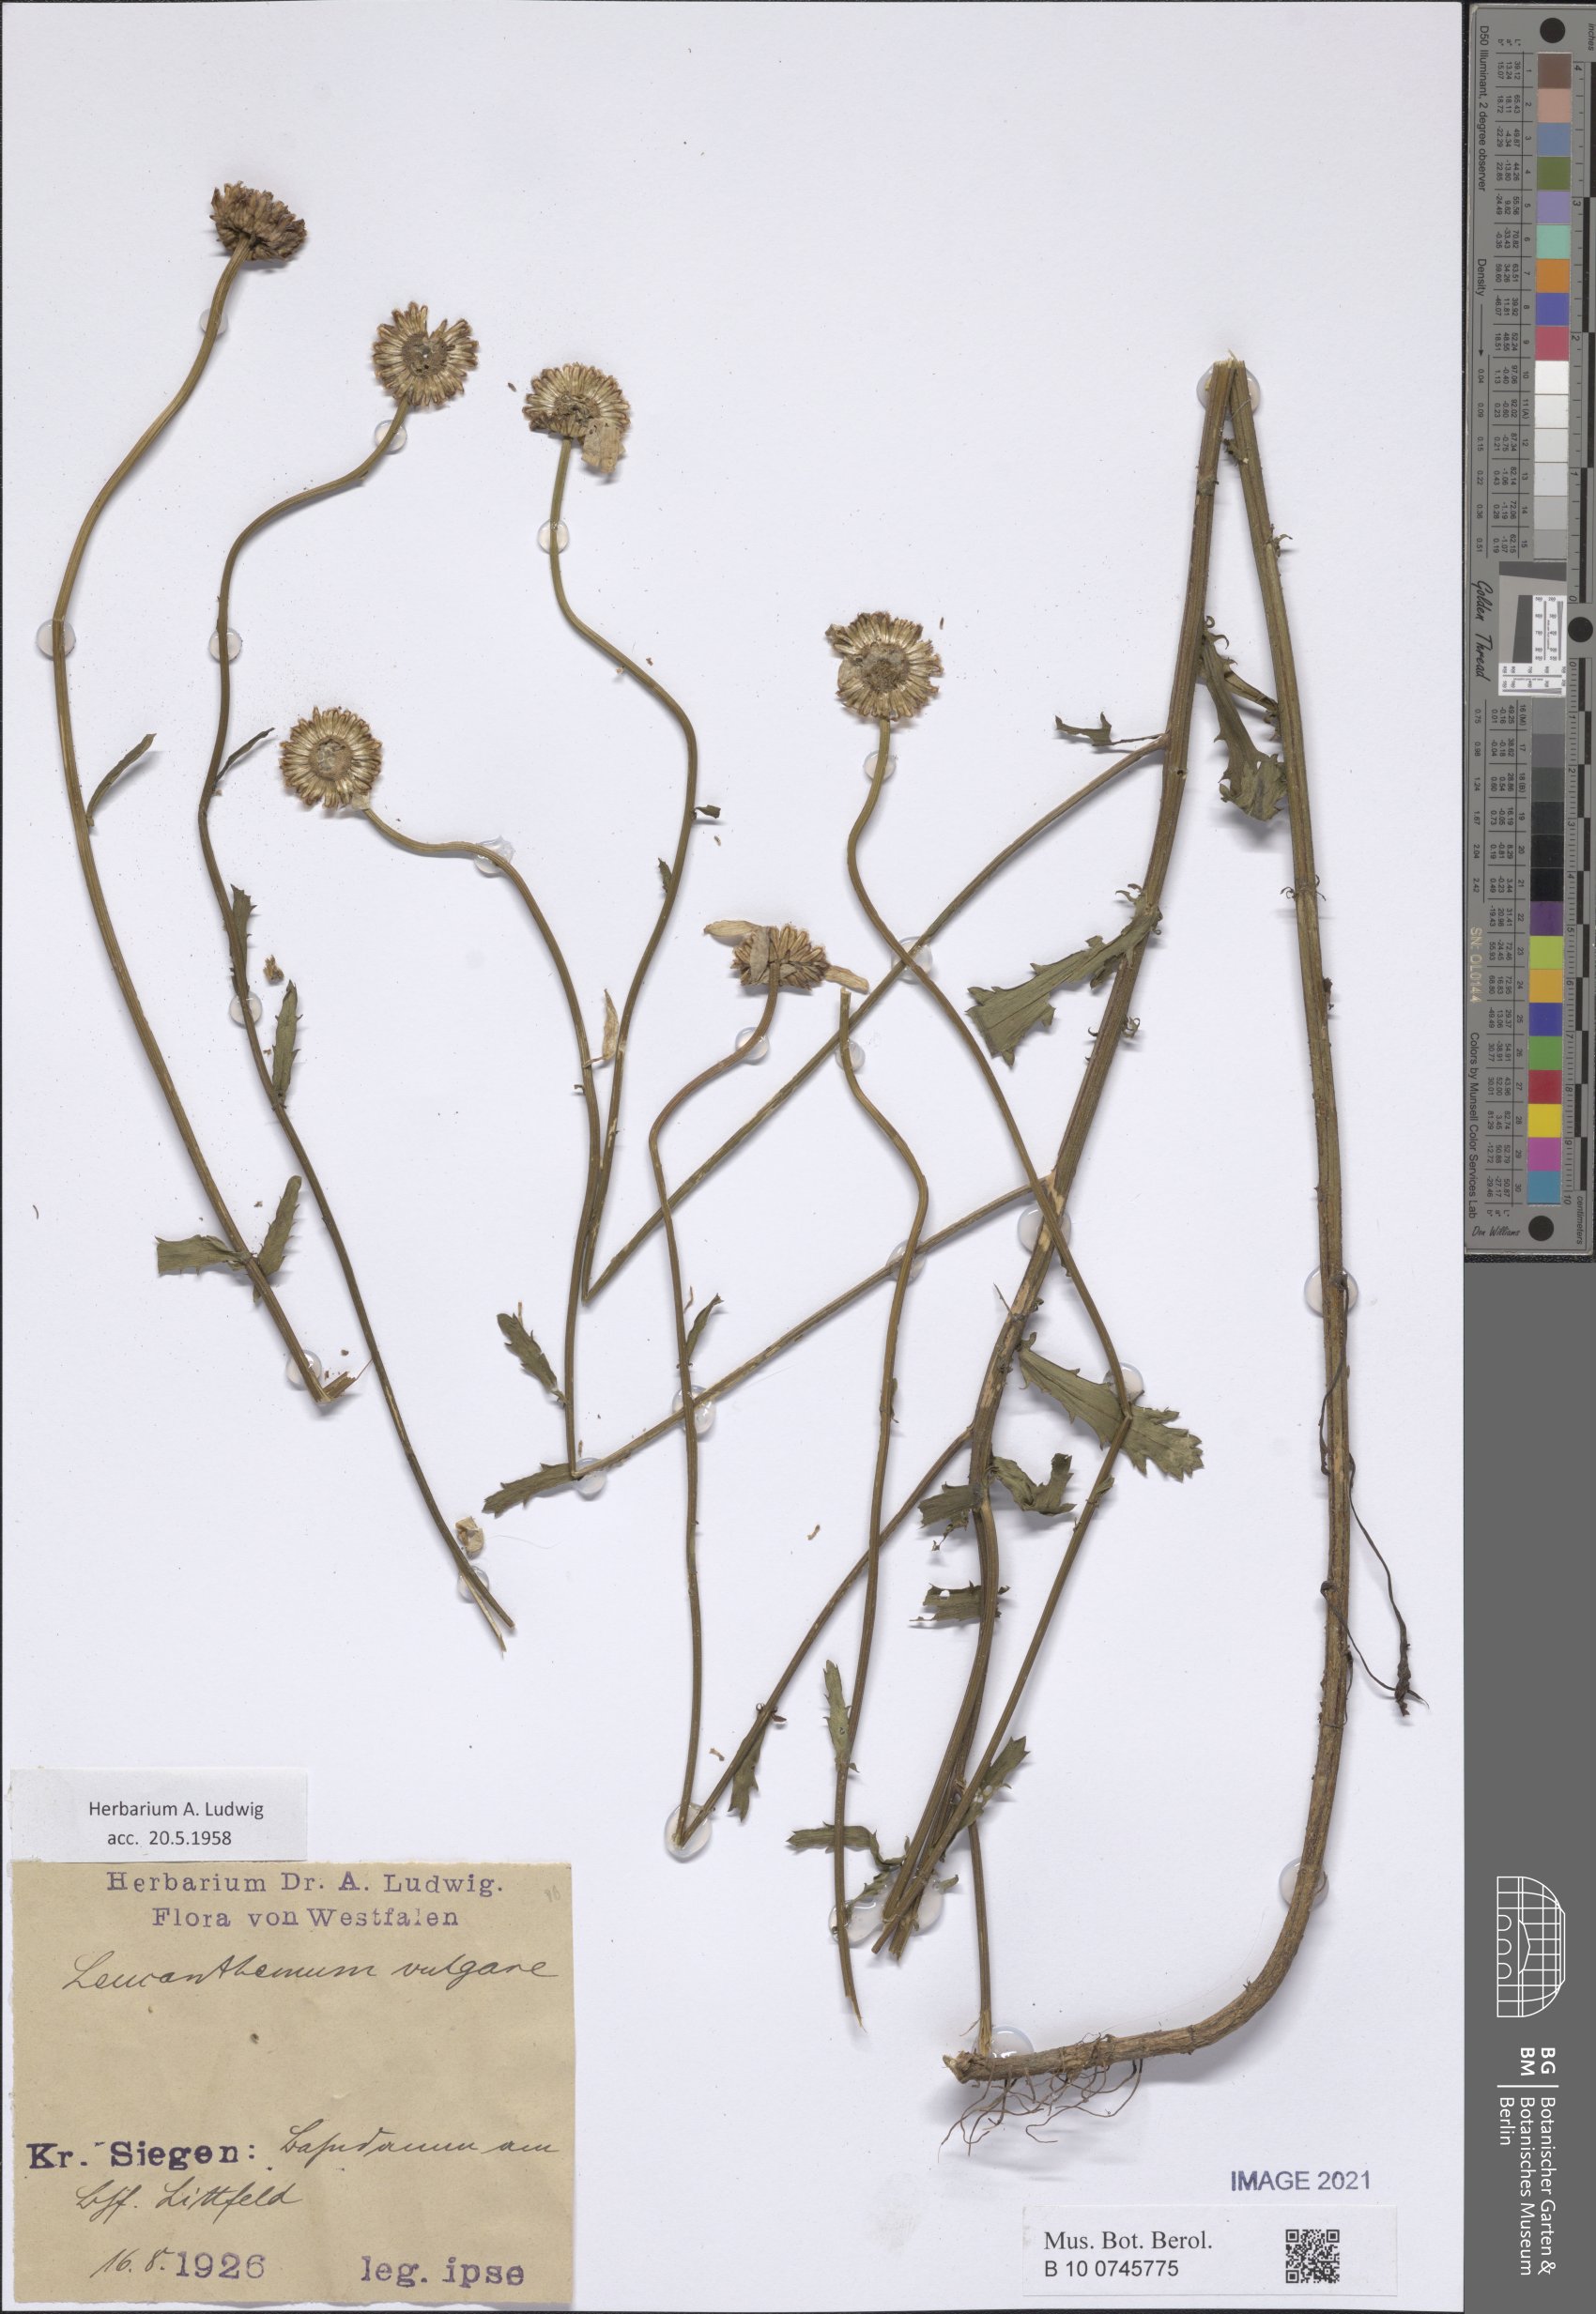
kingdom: Plantae
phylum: Tracheophyta
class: Magnoliopsida
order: Asterales
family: Asteraceae
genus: Leucanthemum
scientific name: Leucanthemum ircutianum
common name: Daisy
